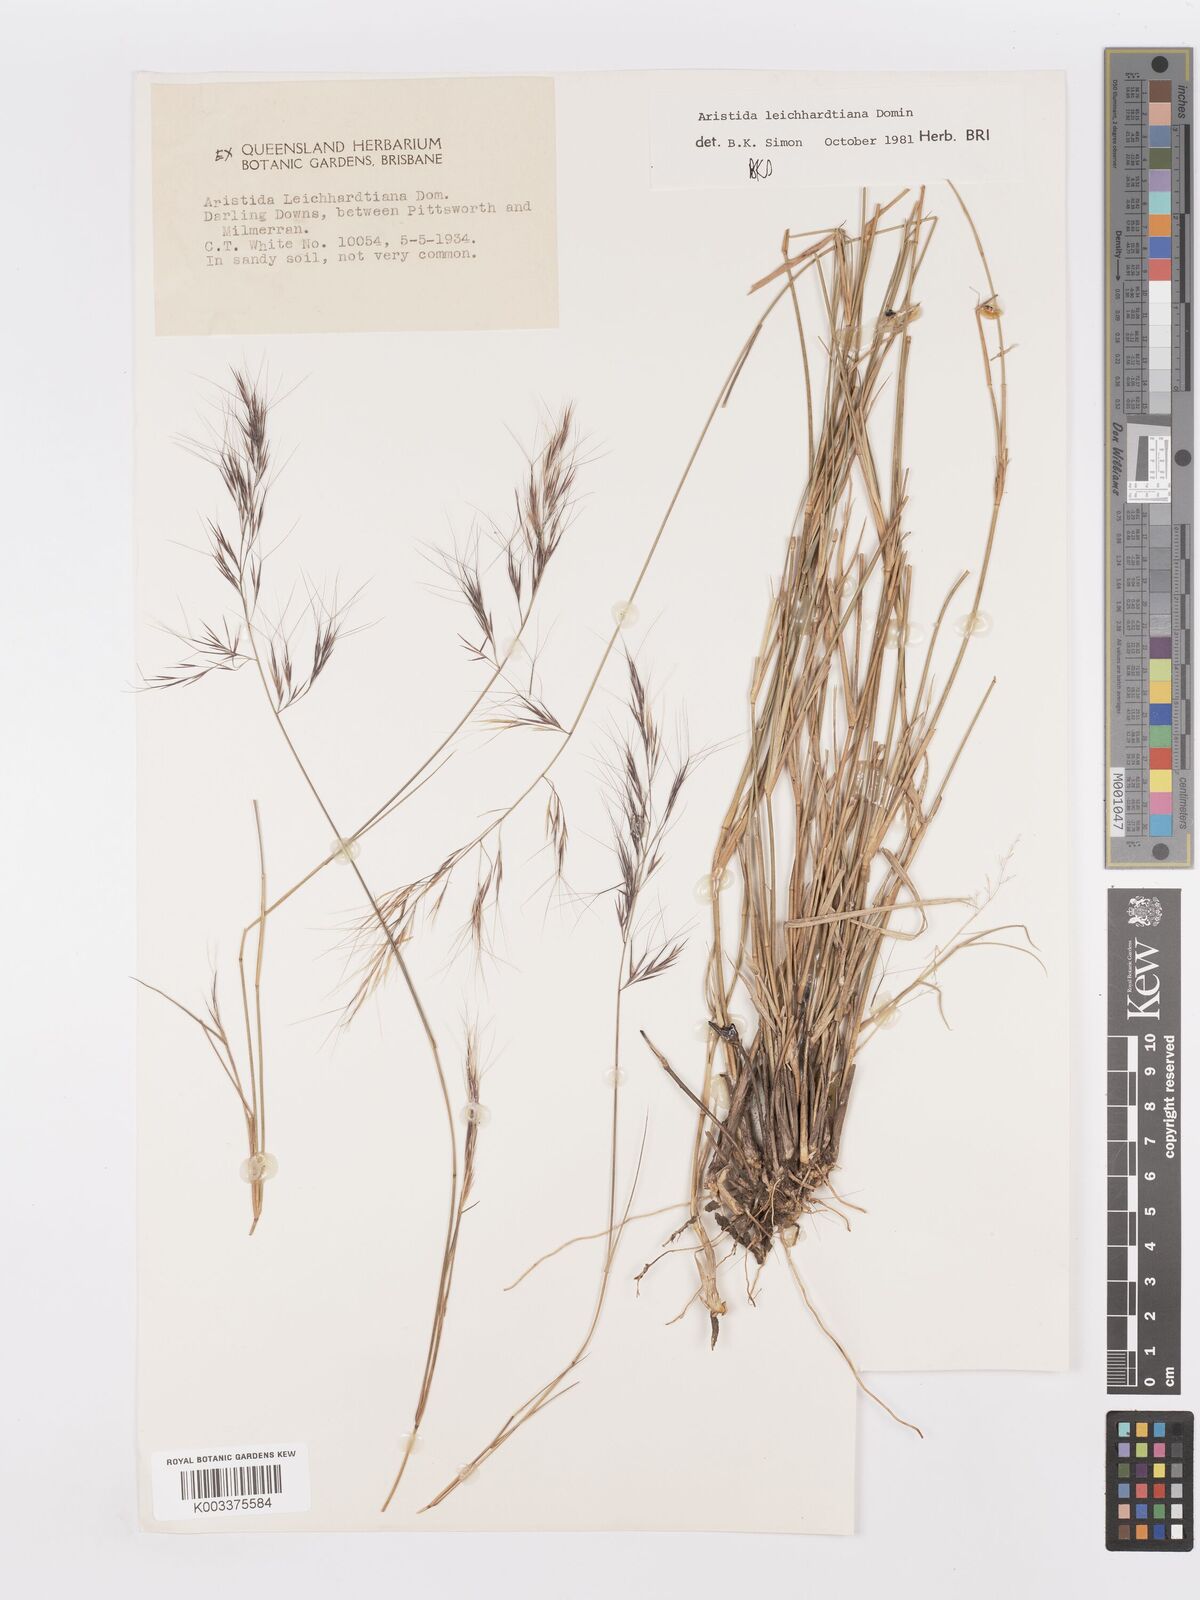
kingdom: Plantae
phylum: Tracheophyta
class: Liliopsida
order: Poales
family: Poaceae
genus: Aristida
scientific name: Aristida leichhardtiana
